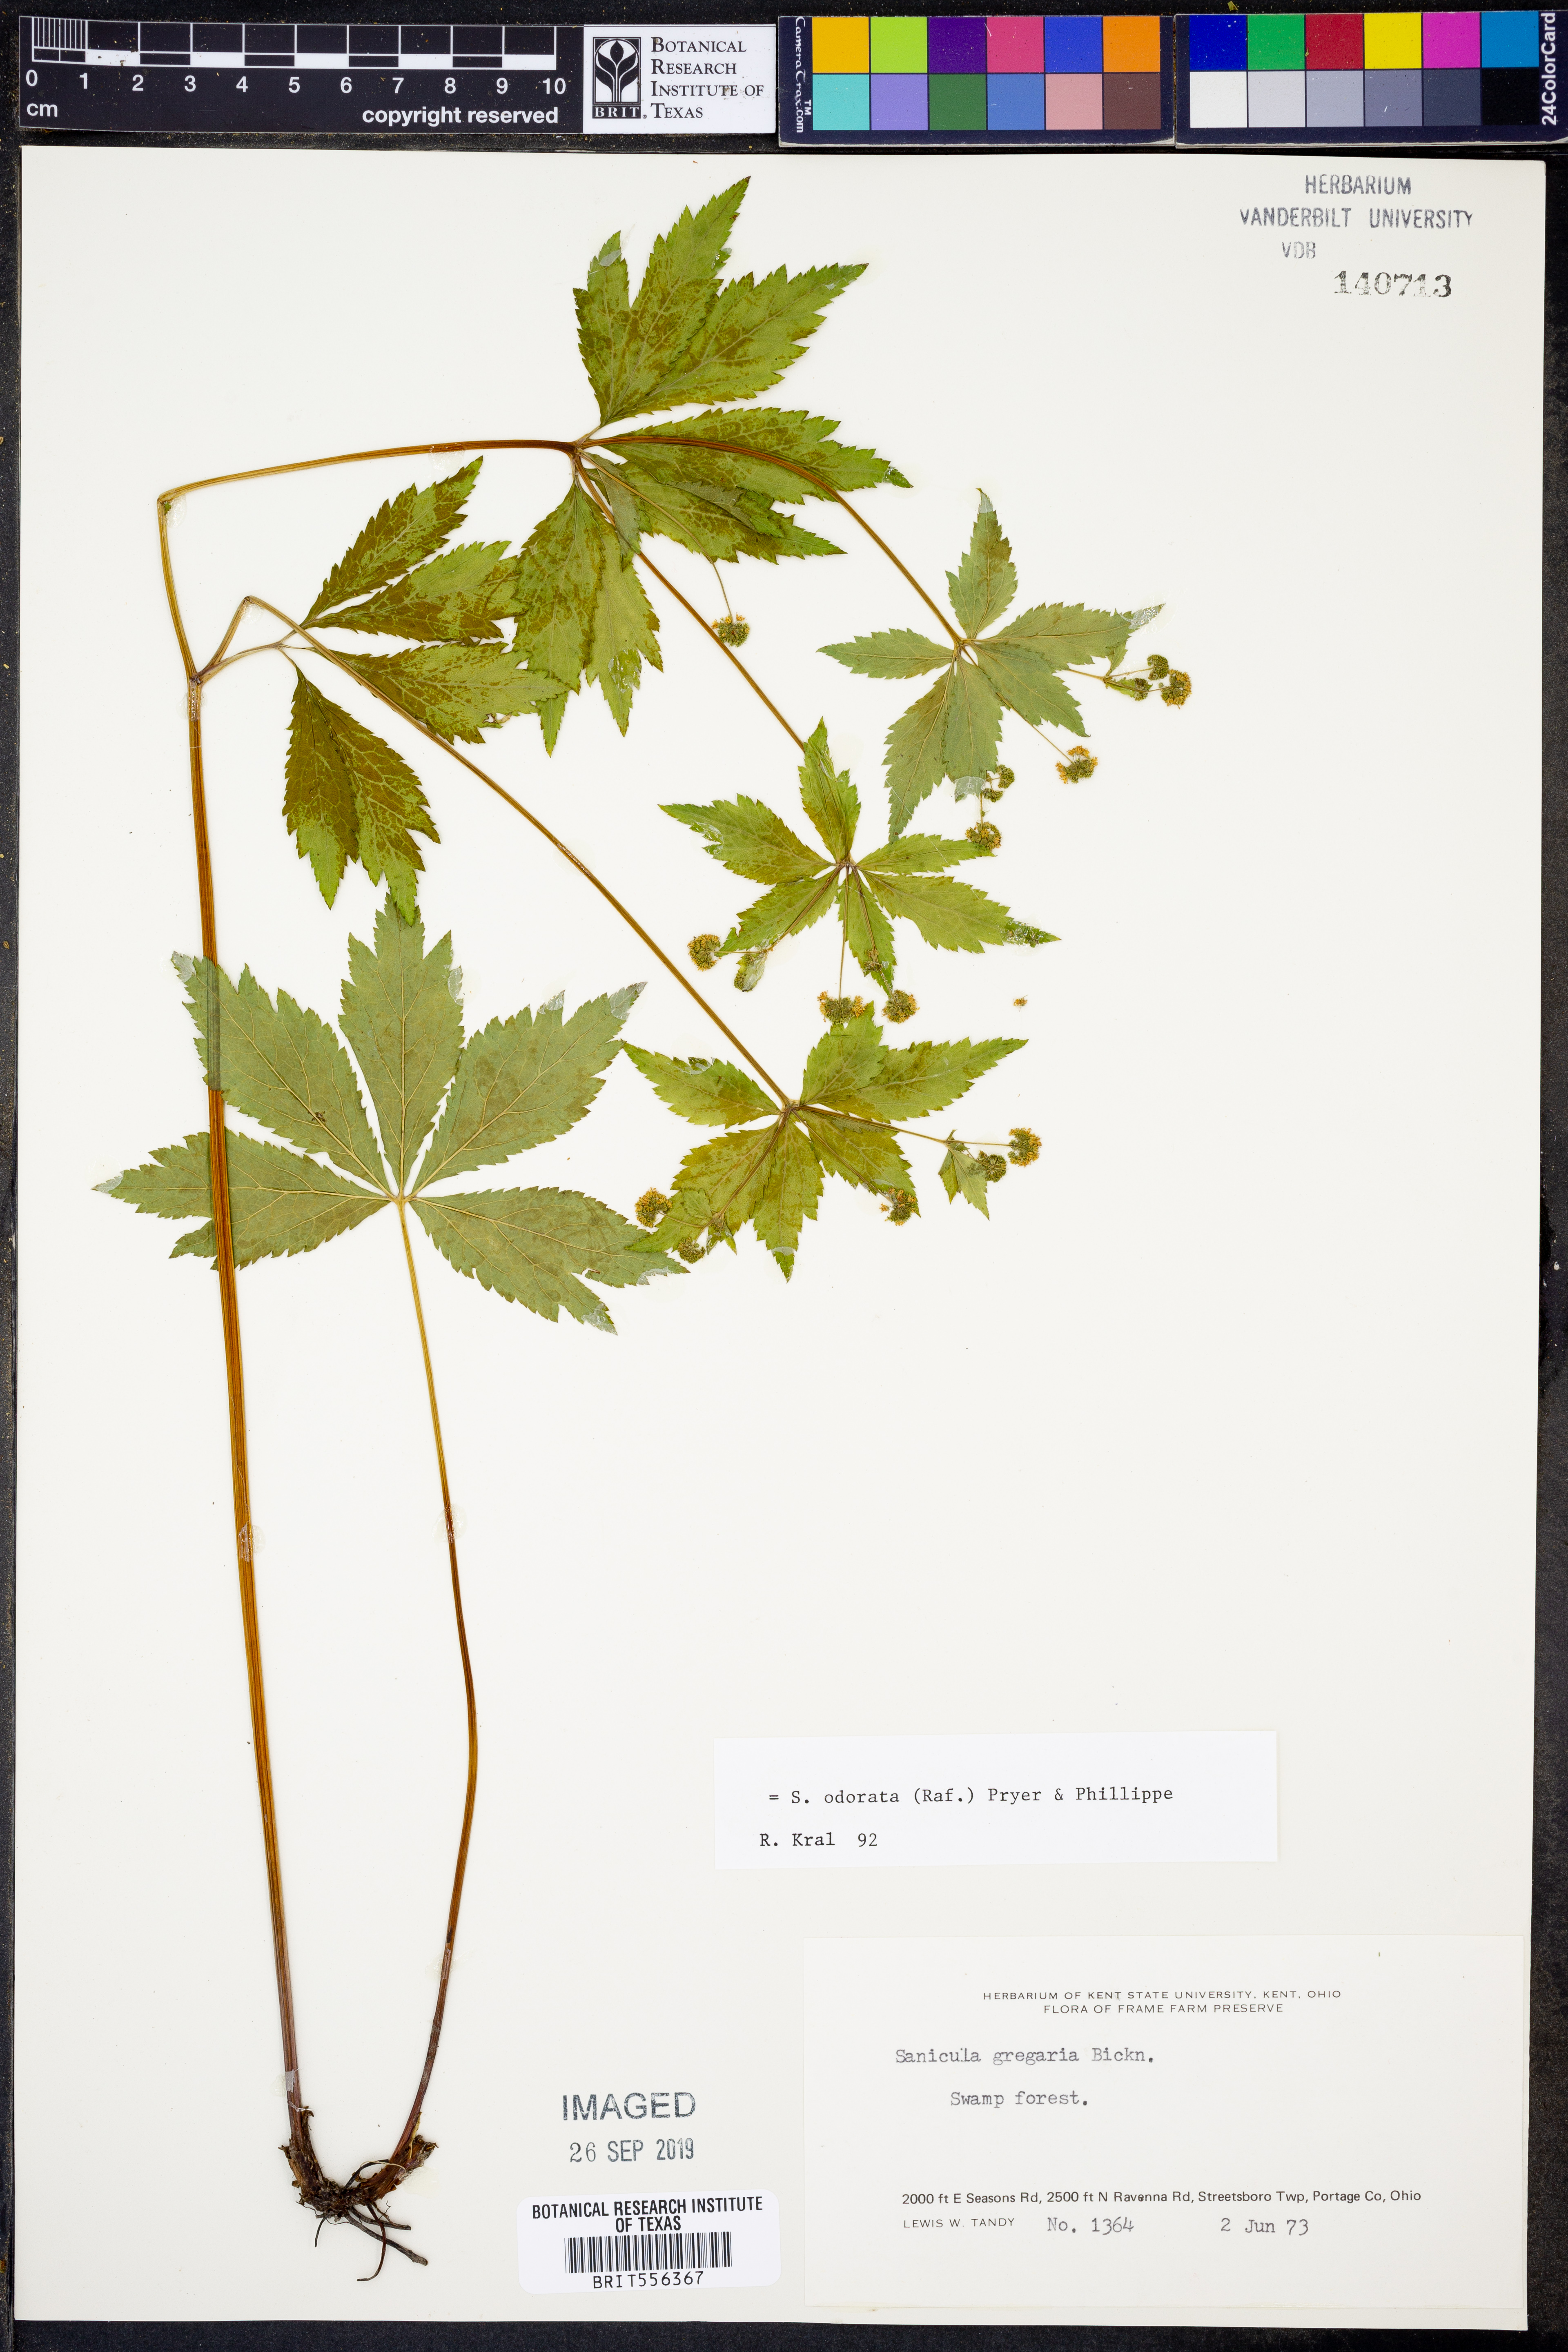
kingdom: Plantae
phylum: Tracheophyta
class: Magnoliopsida
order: Apiales
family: Apiaceae
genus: Sanicula
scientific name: Sanicula odorata
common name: Cluster sanicle
